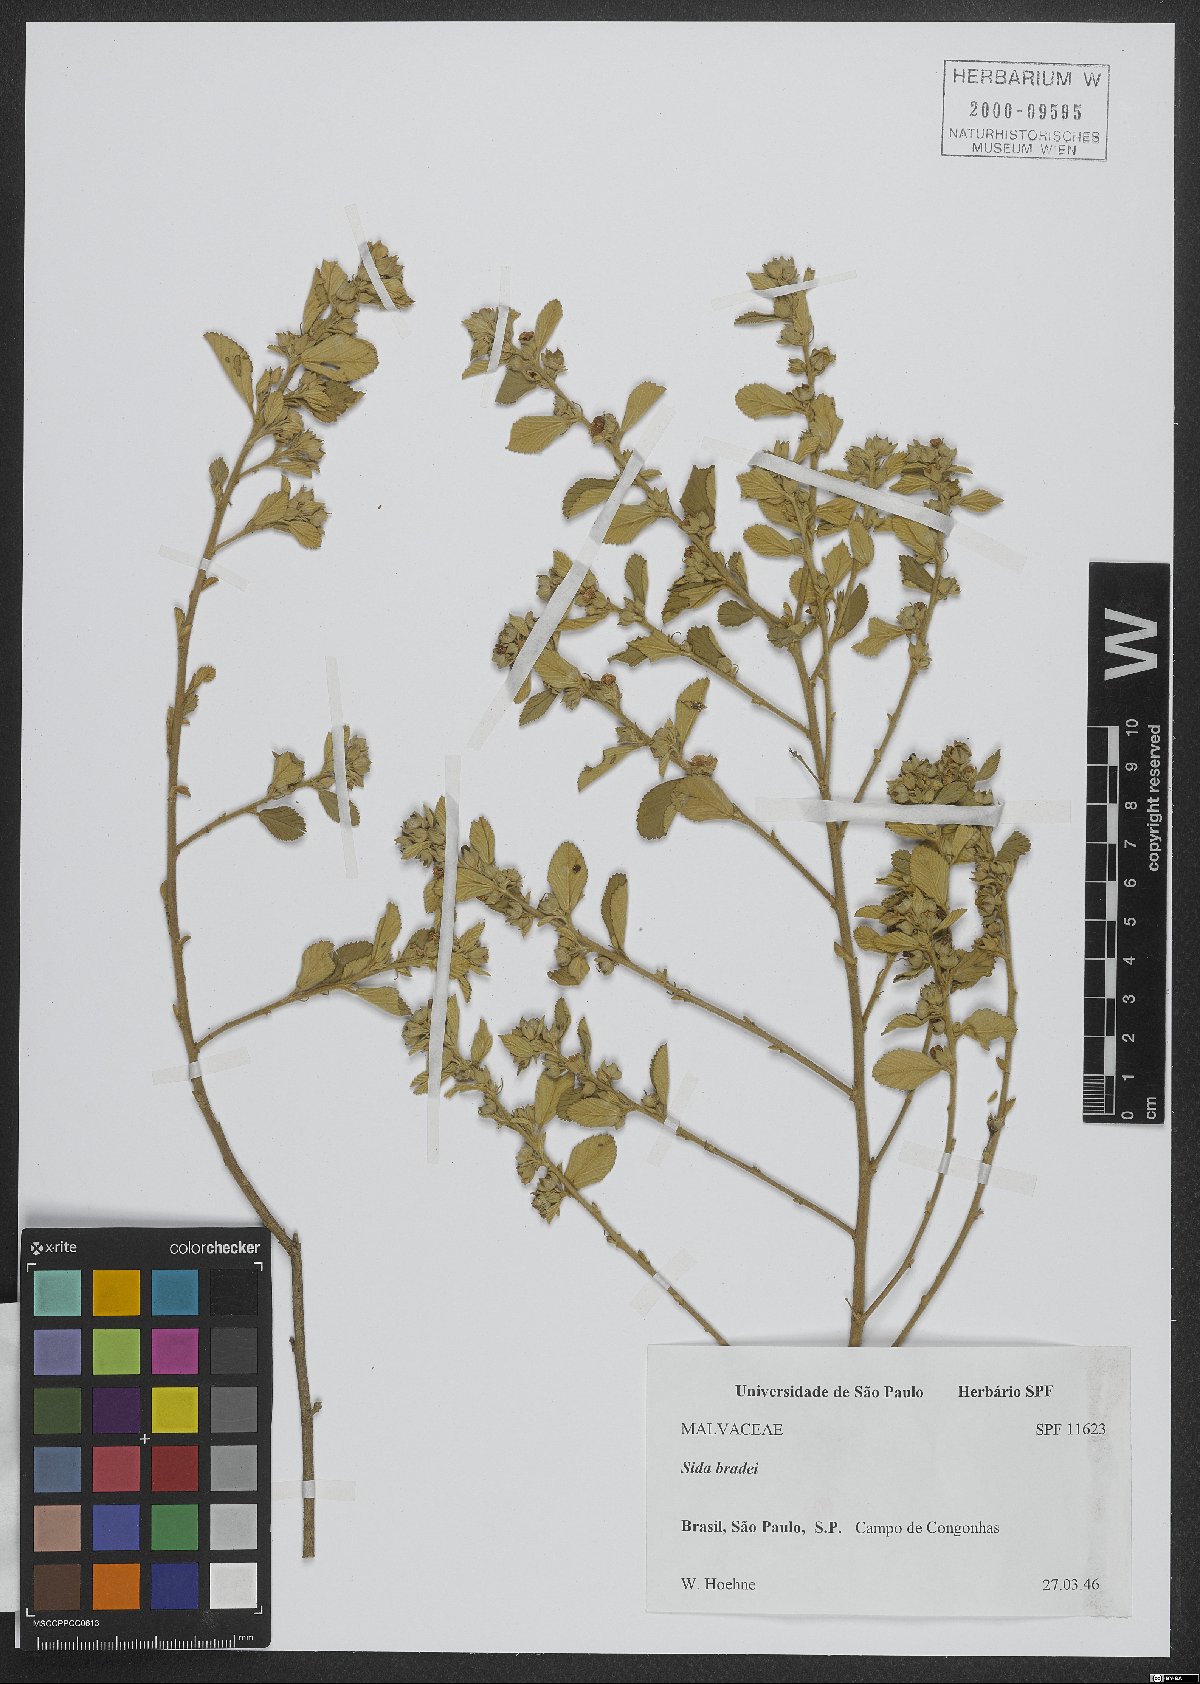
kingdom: Plantae
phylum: Tracheophyta
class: Magnoliopsida
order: Malvales
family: Malvaceae
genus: Sida
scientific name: Sida acuta
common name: Common wireweed
